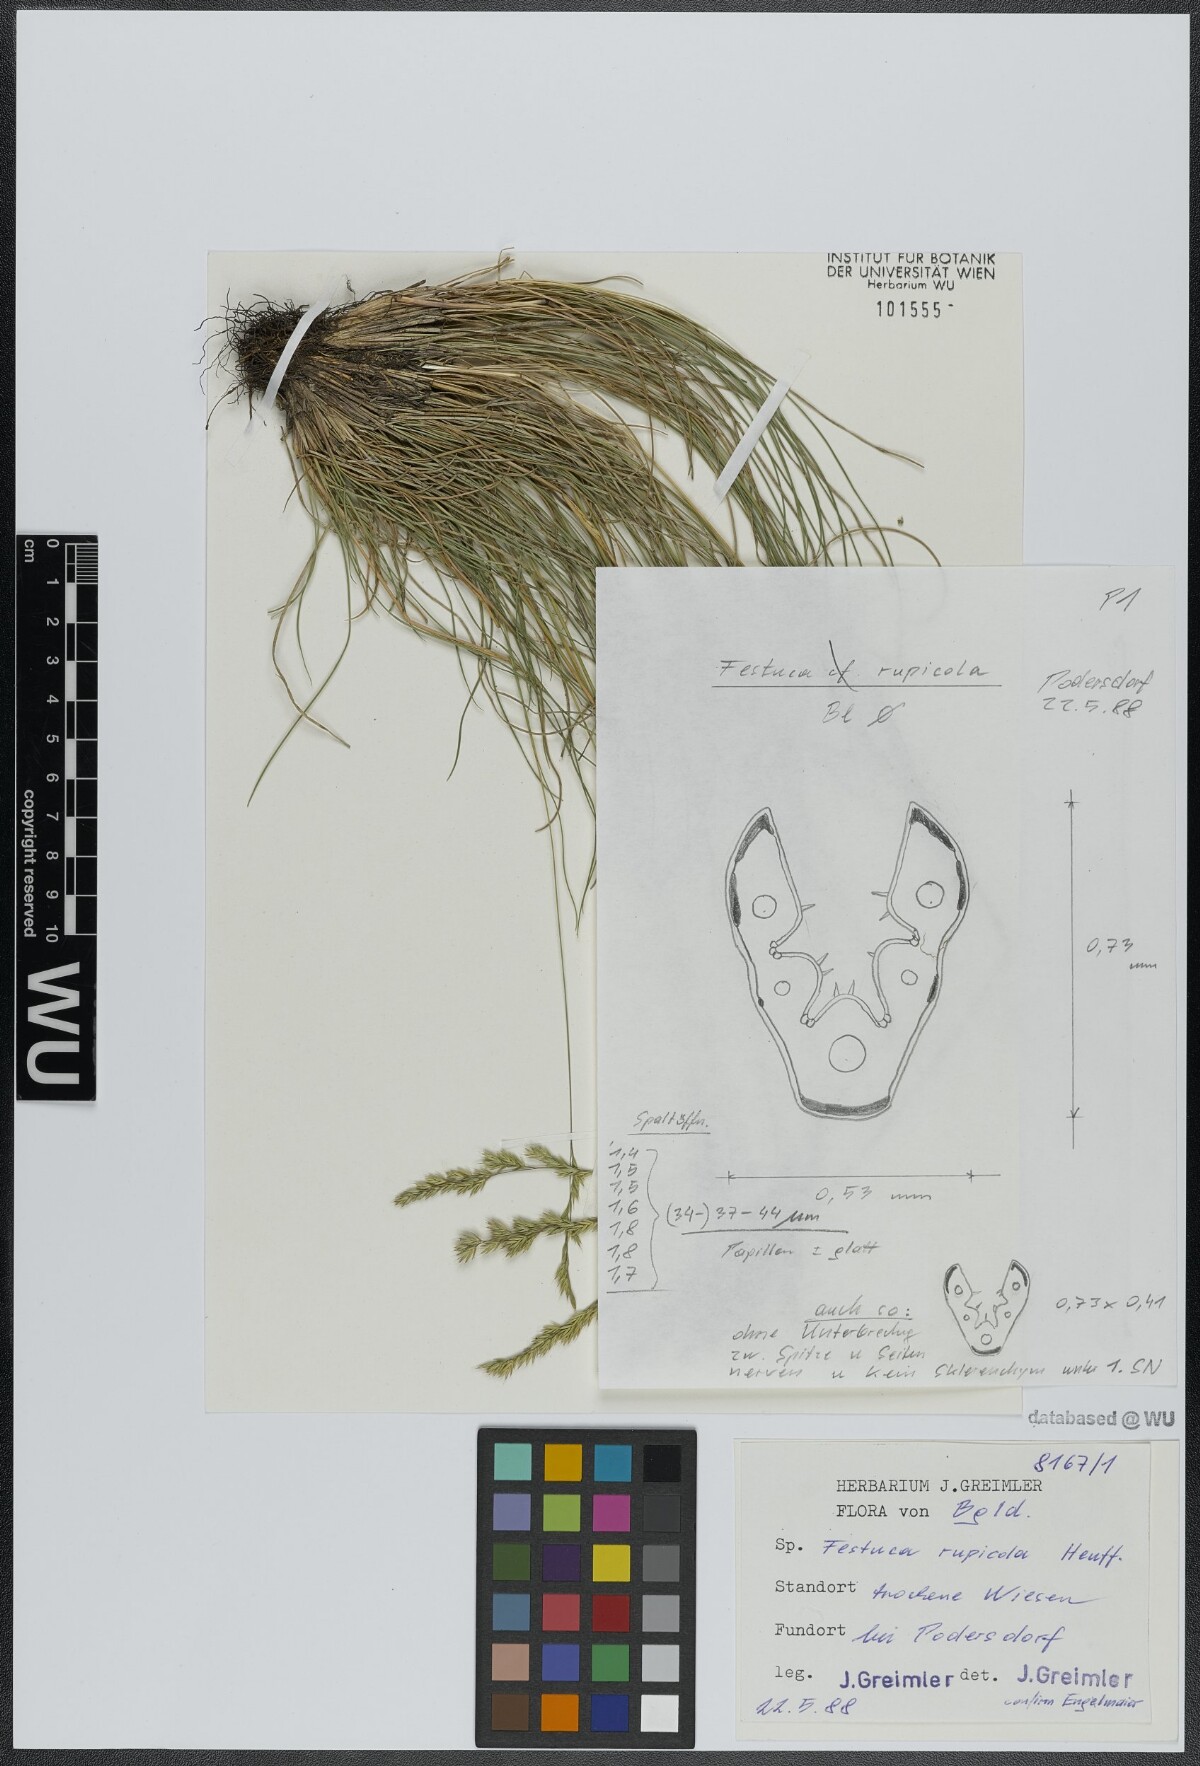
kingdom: Plantae
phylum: Tracheophyta
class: Liliopsida
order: Poales
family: Poaceae
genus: Festuca
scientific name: Festuca rupicola
